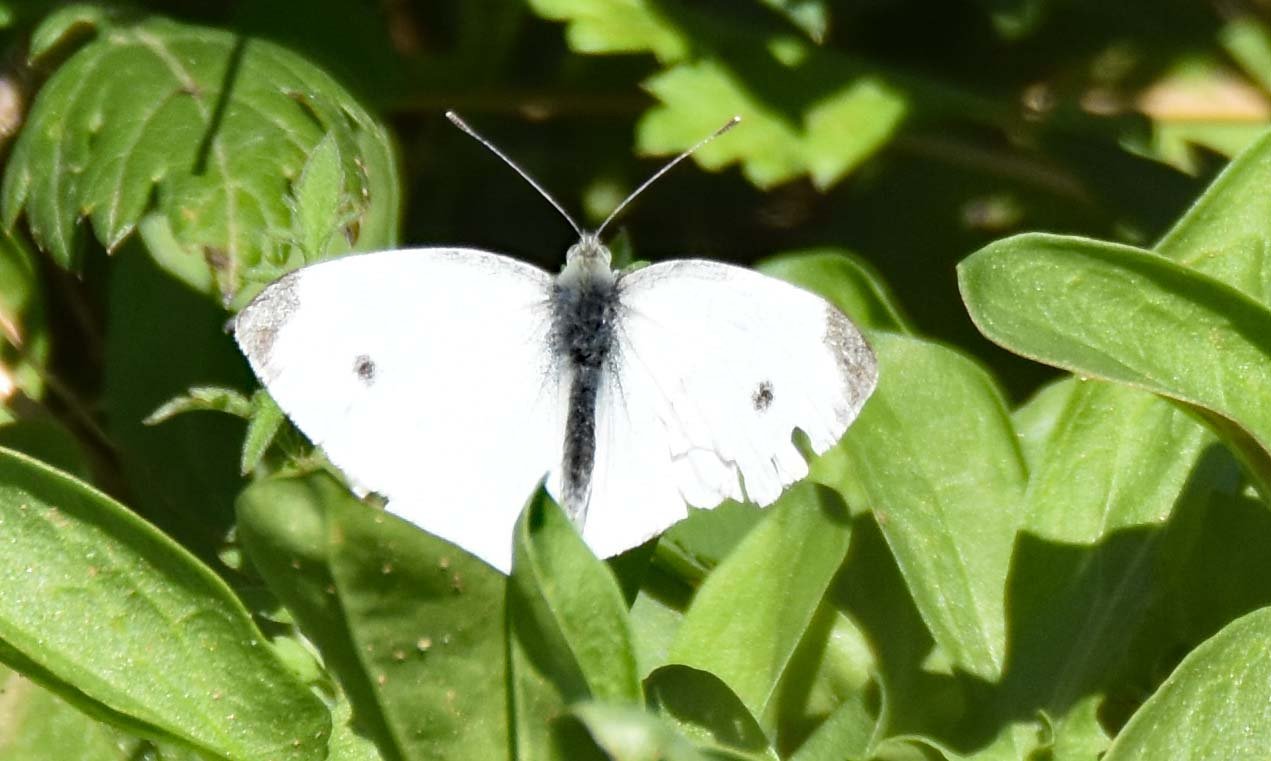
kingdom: Animalia
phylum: Arthropoda
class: Insecta
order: Lepidoptera
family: Pieridae
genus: Pieris
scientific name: Pieris rapae
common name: Cabbage White
